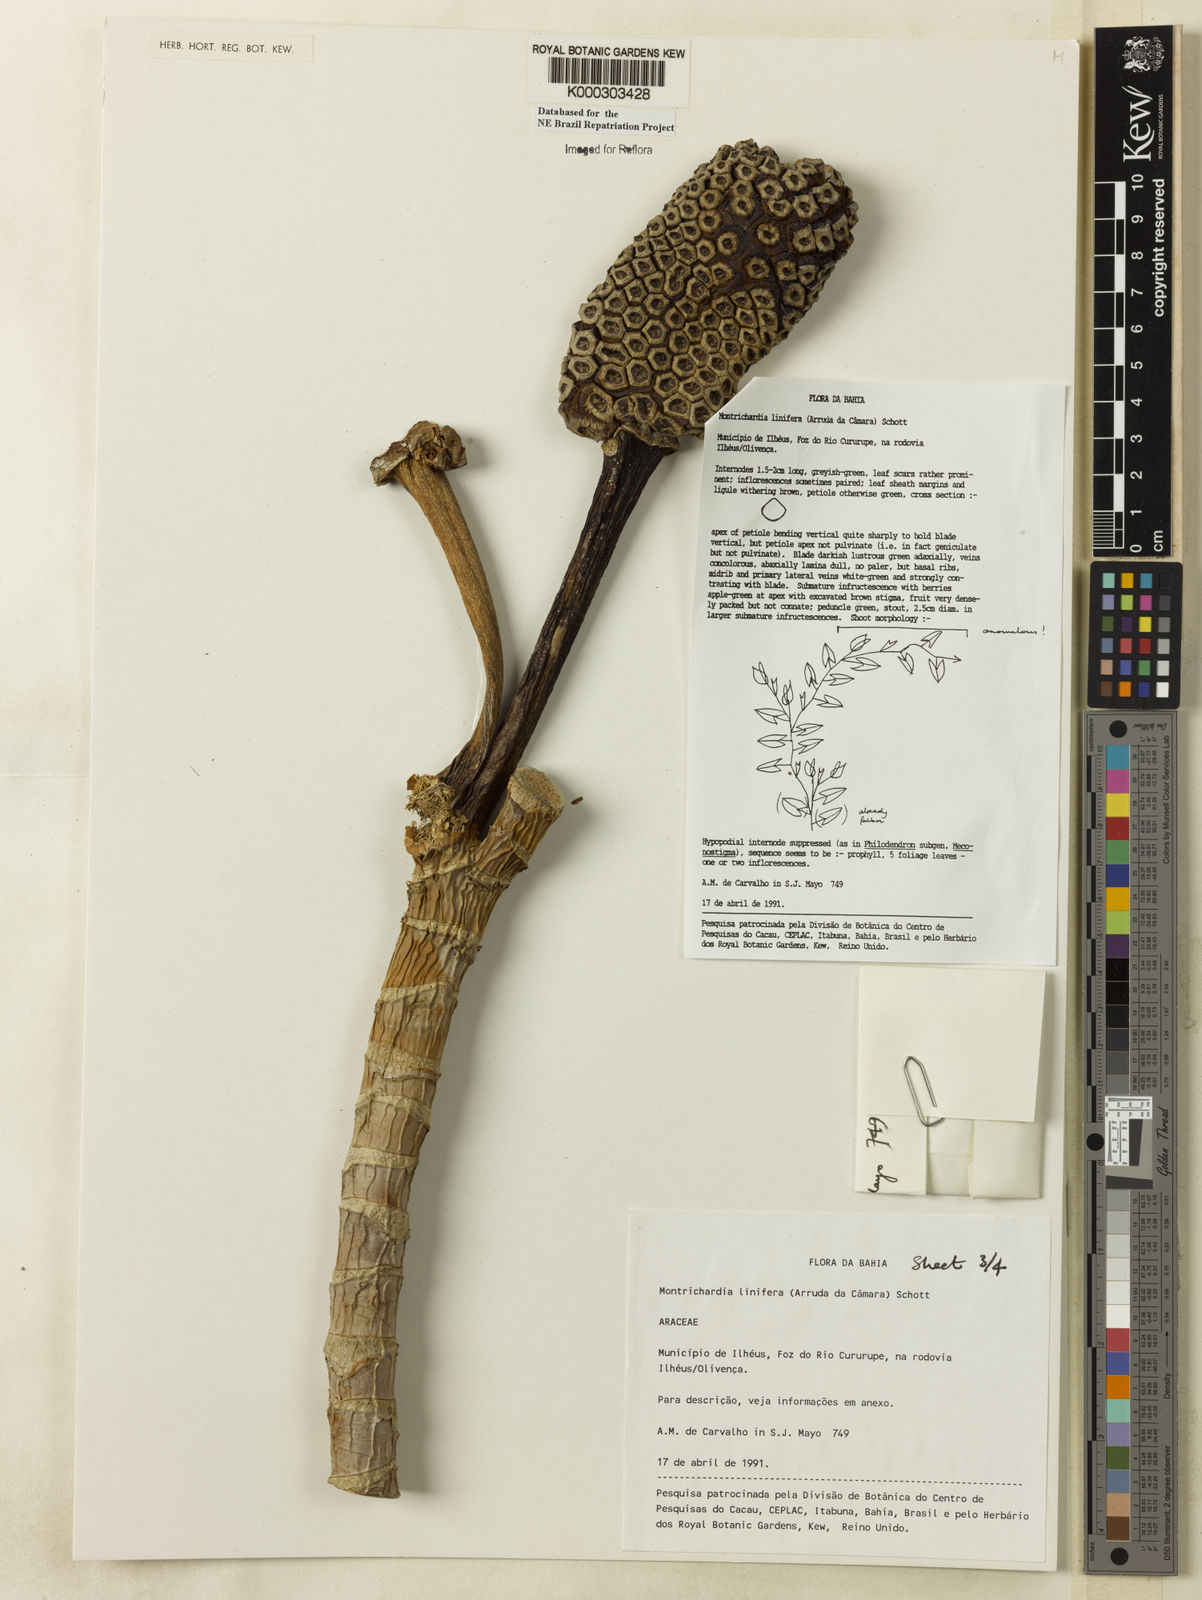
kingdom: Plantae
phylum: Tracheophyta
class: Liliopsida
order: Alismatales
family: Araceae
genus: Montrichardia
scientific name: Montrichardia linifera
